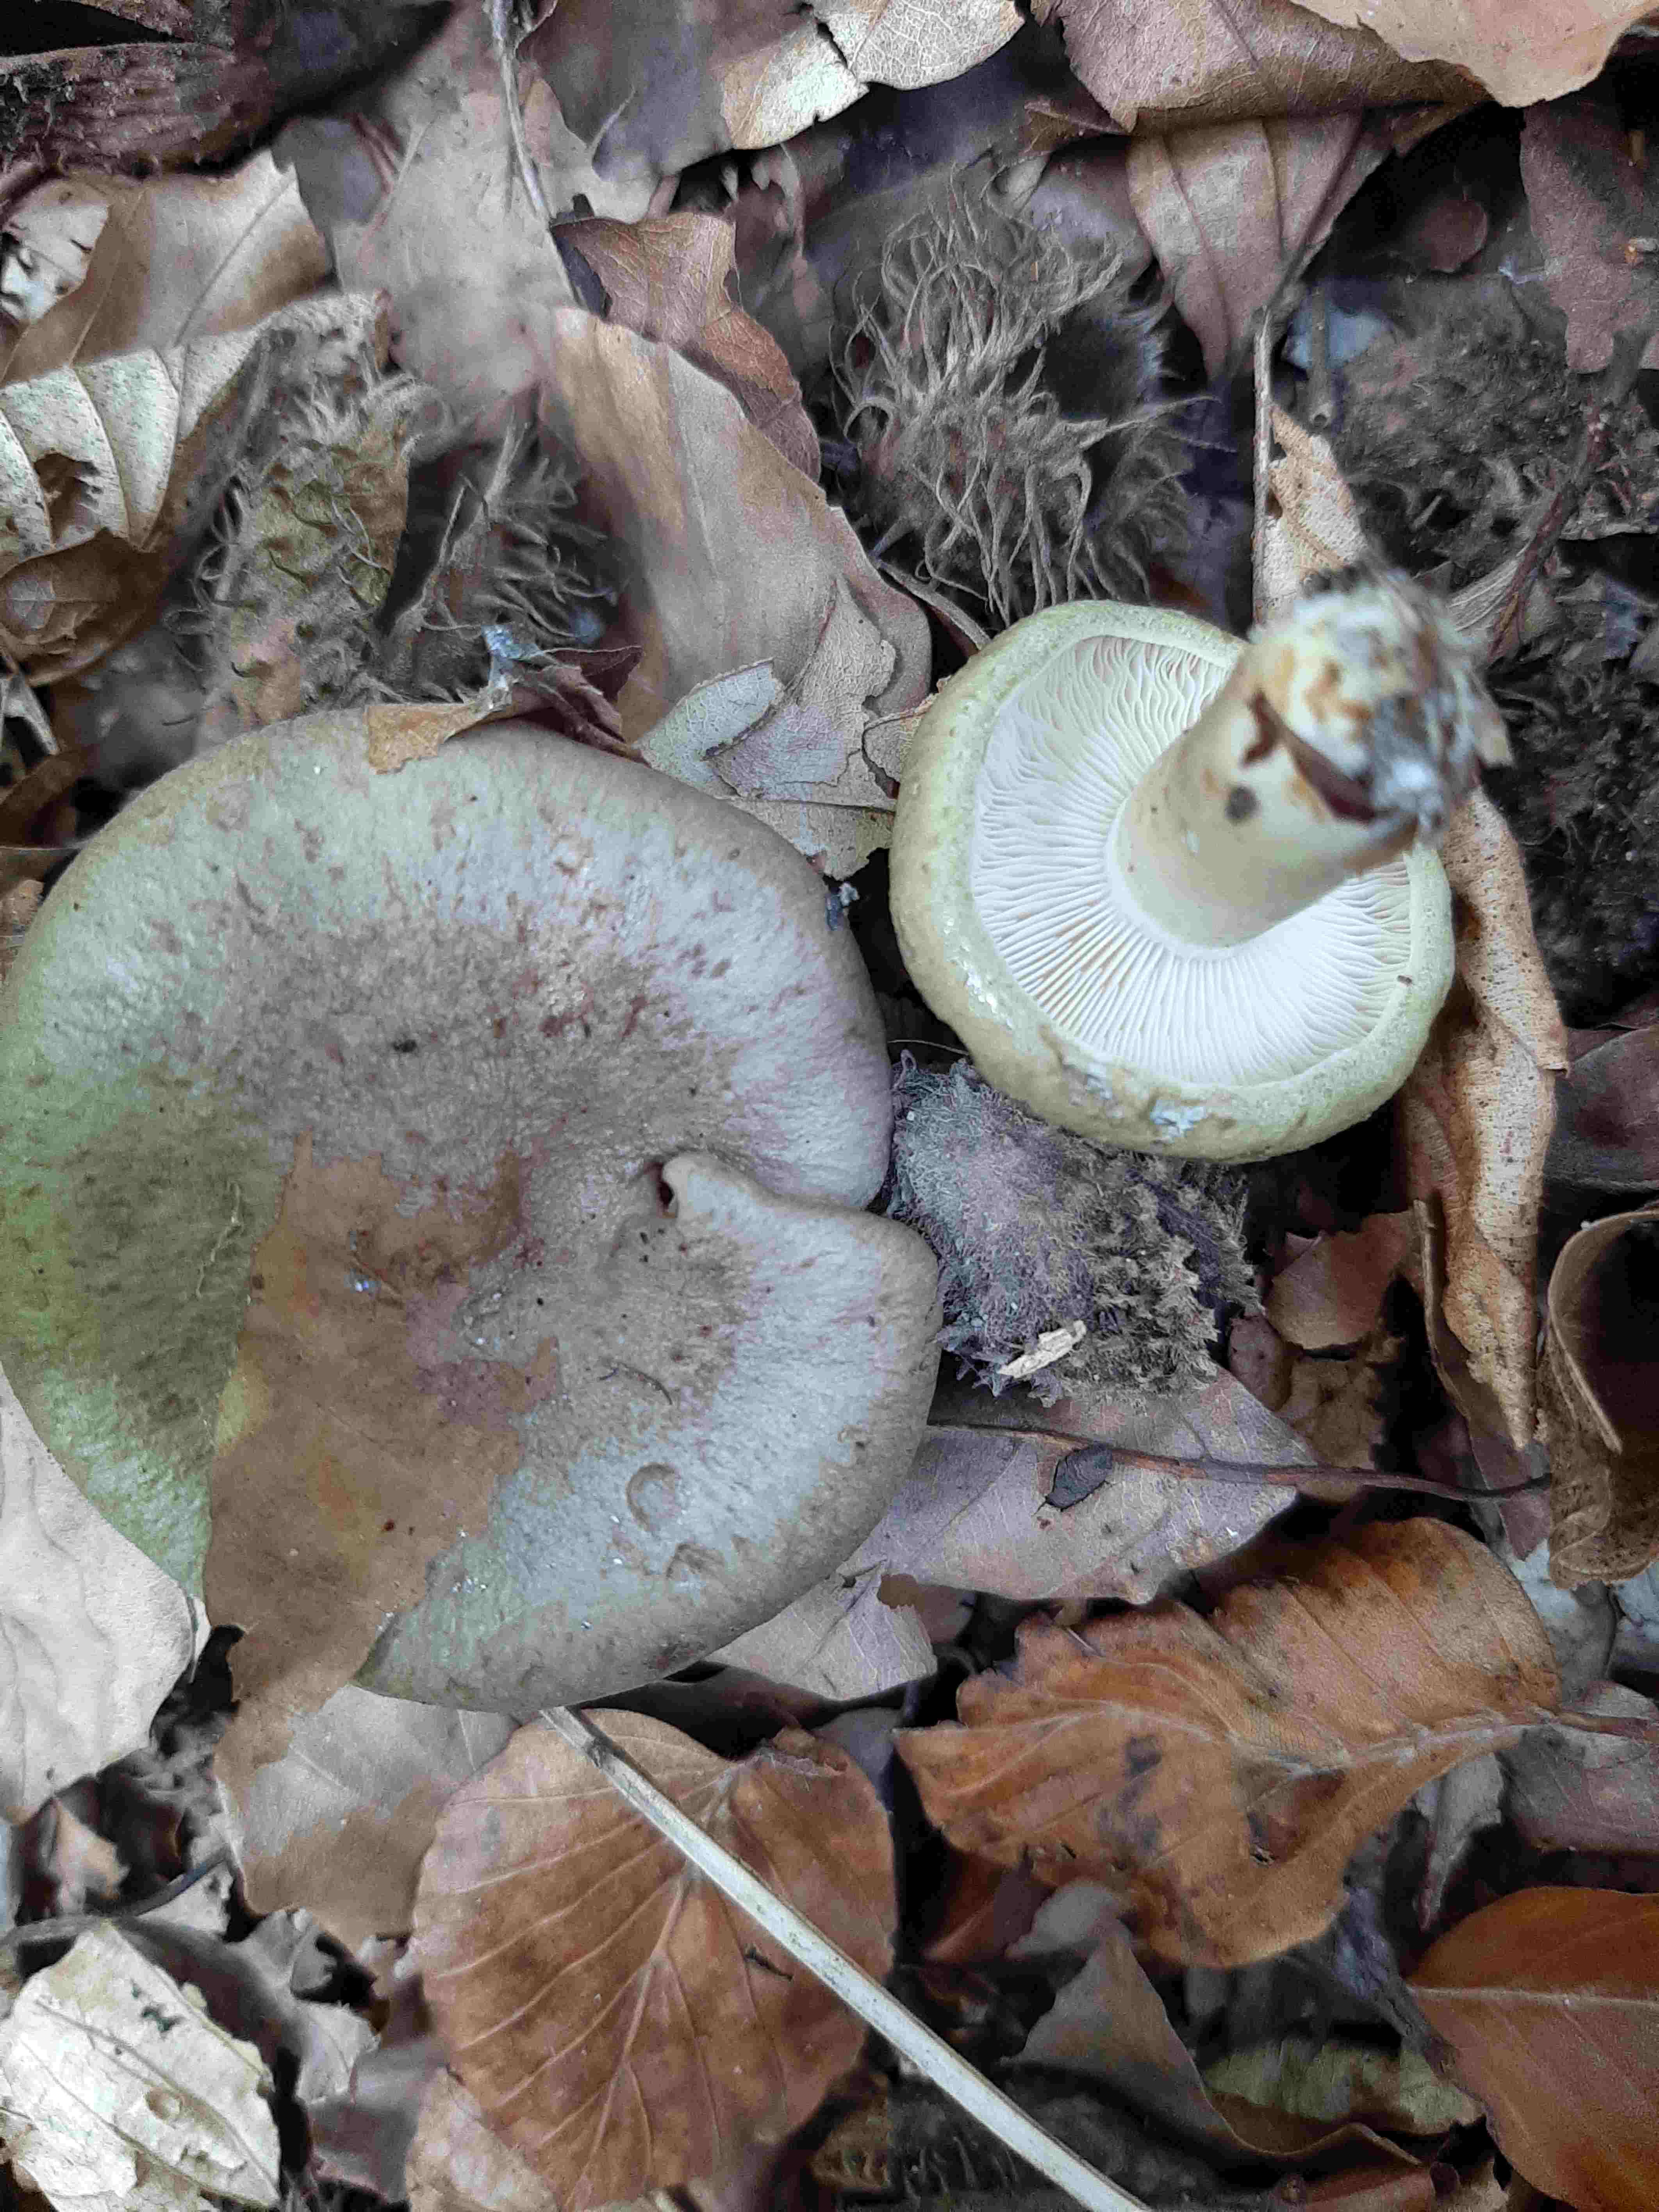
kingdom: Fungi
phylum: Basidiomycota
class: Agaricomycetes
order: Russulales
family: Russulaceae
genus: Lactarius
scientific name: Lactarius blennius
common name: dråbeplettet mælkehat
